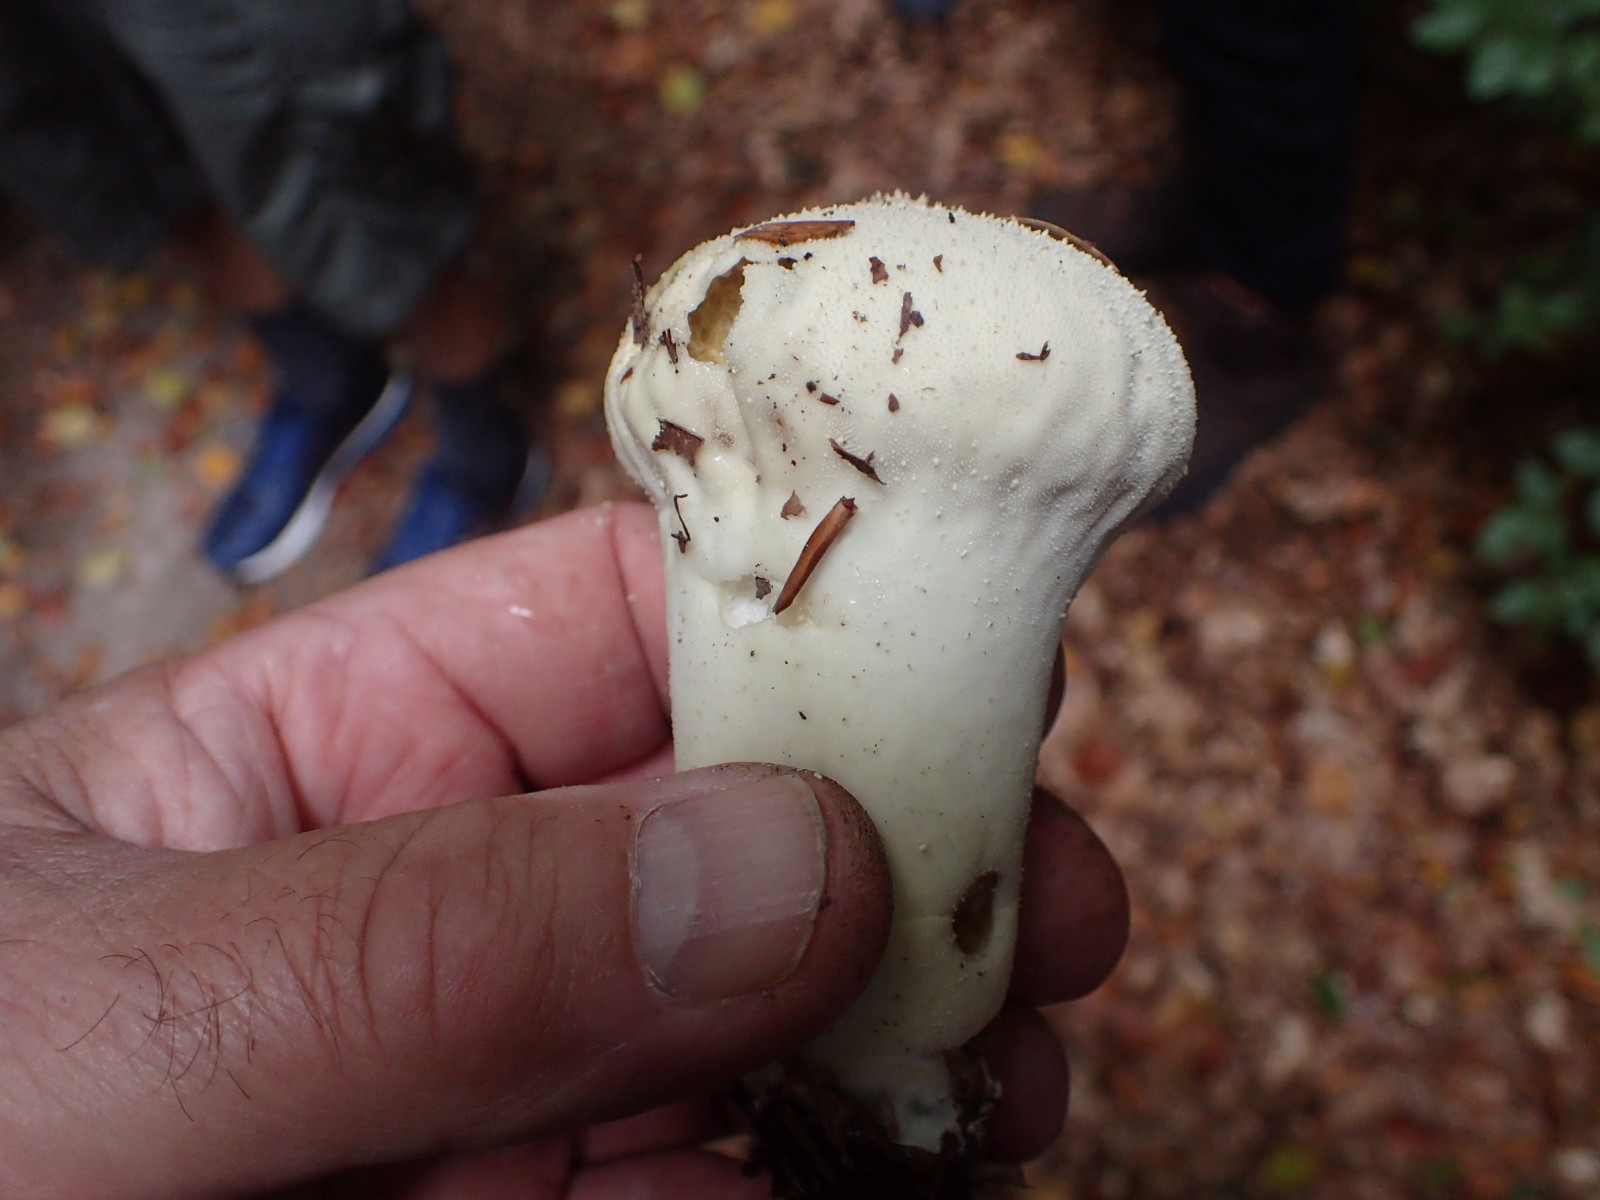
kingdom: Fungi
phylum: Basidiomycota
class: Agaricomycetes
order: Agaricales
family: Lycoperdaceae
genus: Lycoperdon
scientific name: Lycoperdon excipuliforme
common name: højstokket støvbold
